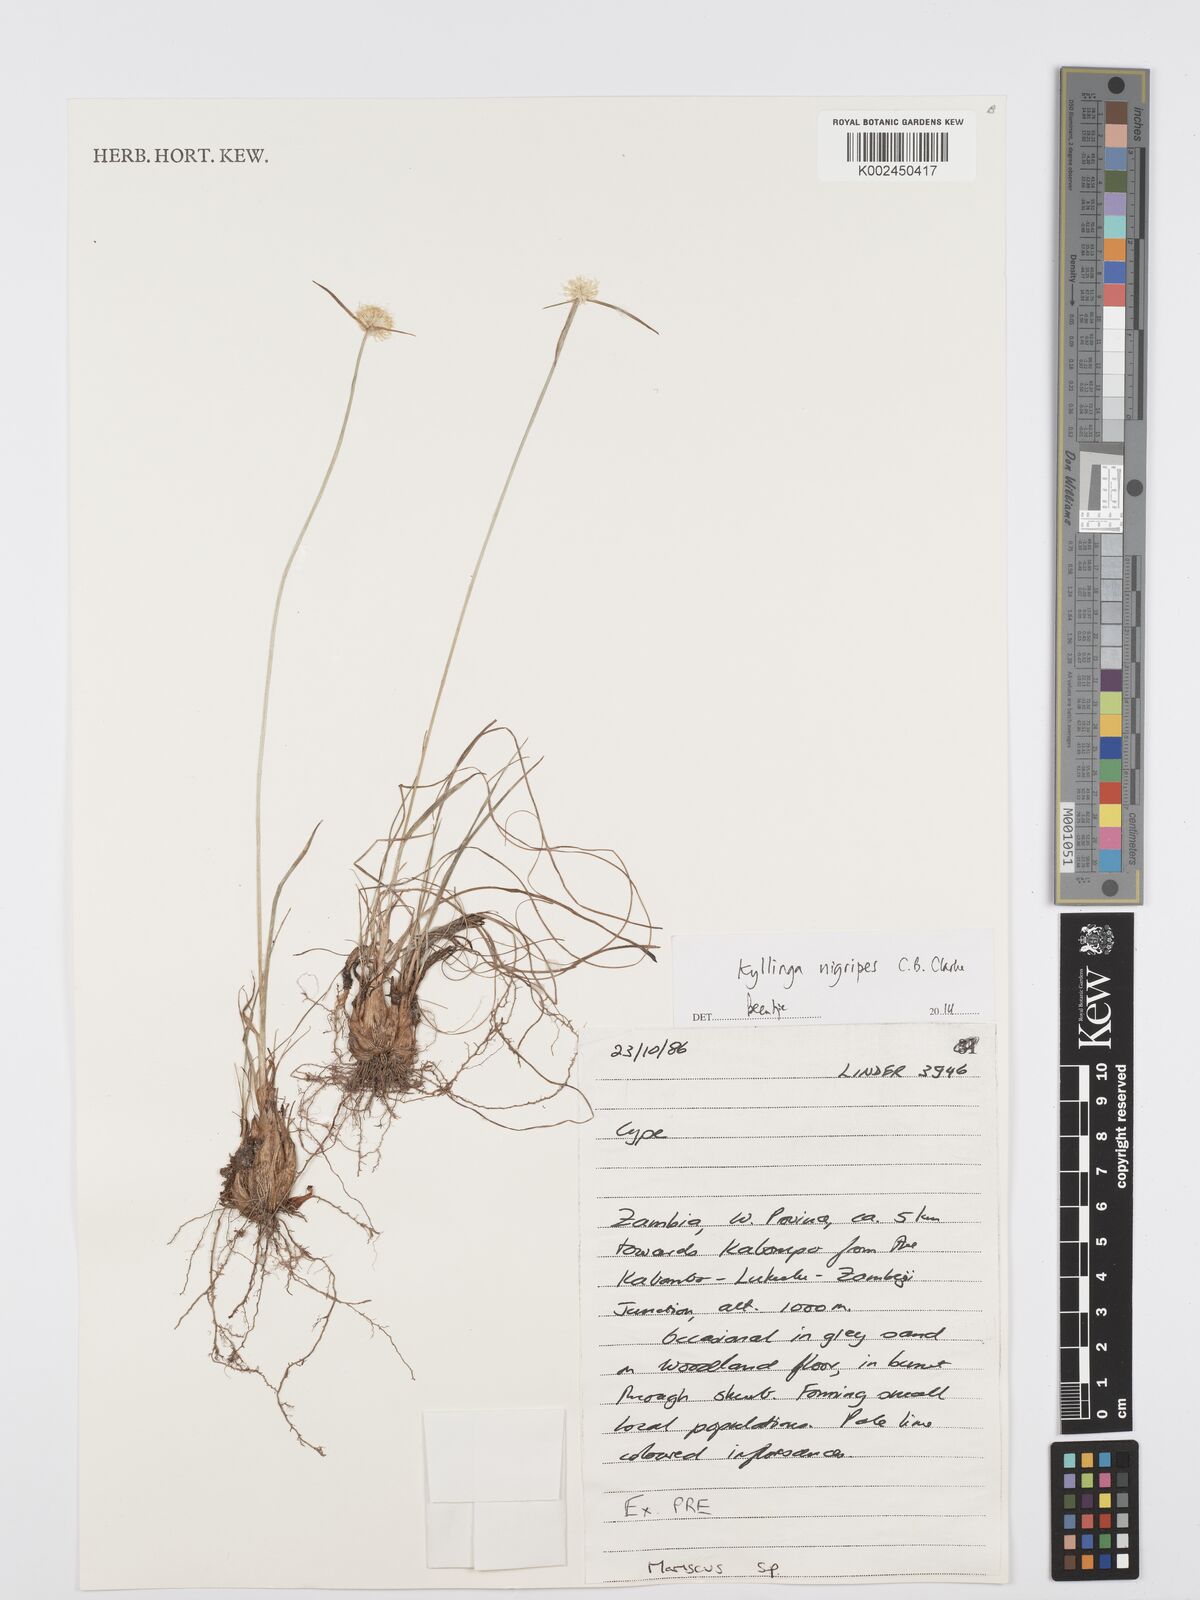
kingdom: Plantae
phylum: Tracheophyta
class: Liliopsida
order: Poales
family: Cyperaceae
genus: Cyperus
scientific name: Cyperus nigripes
